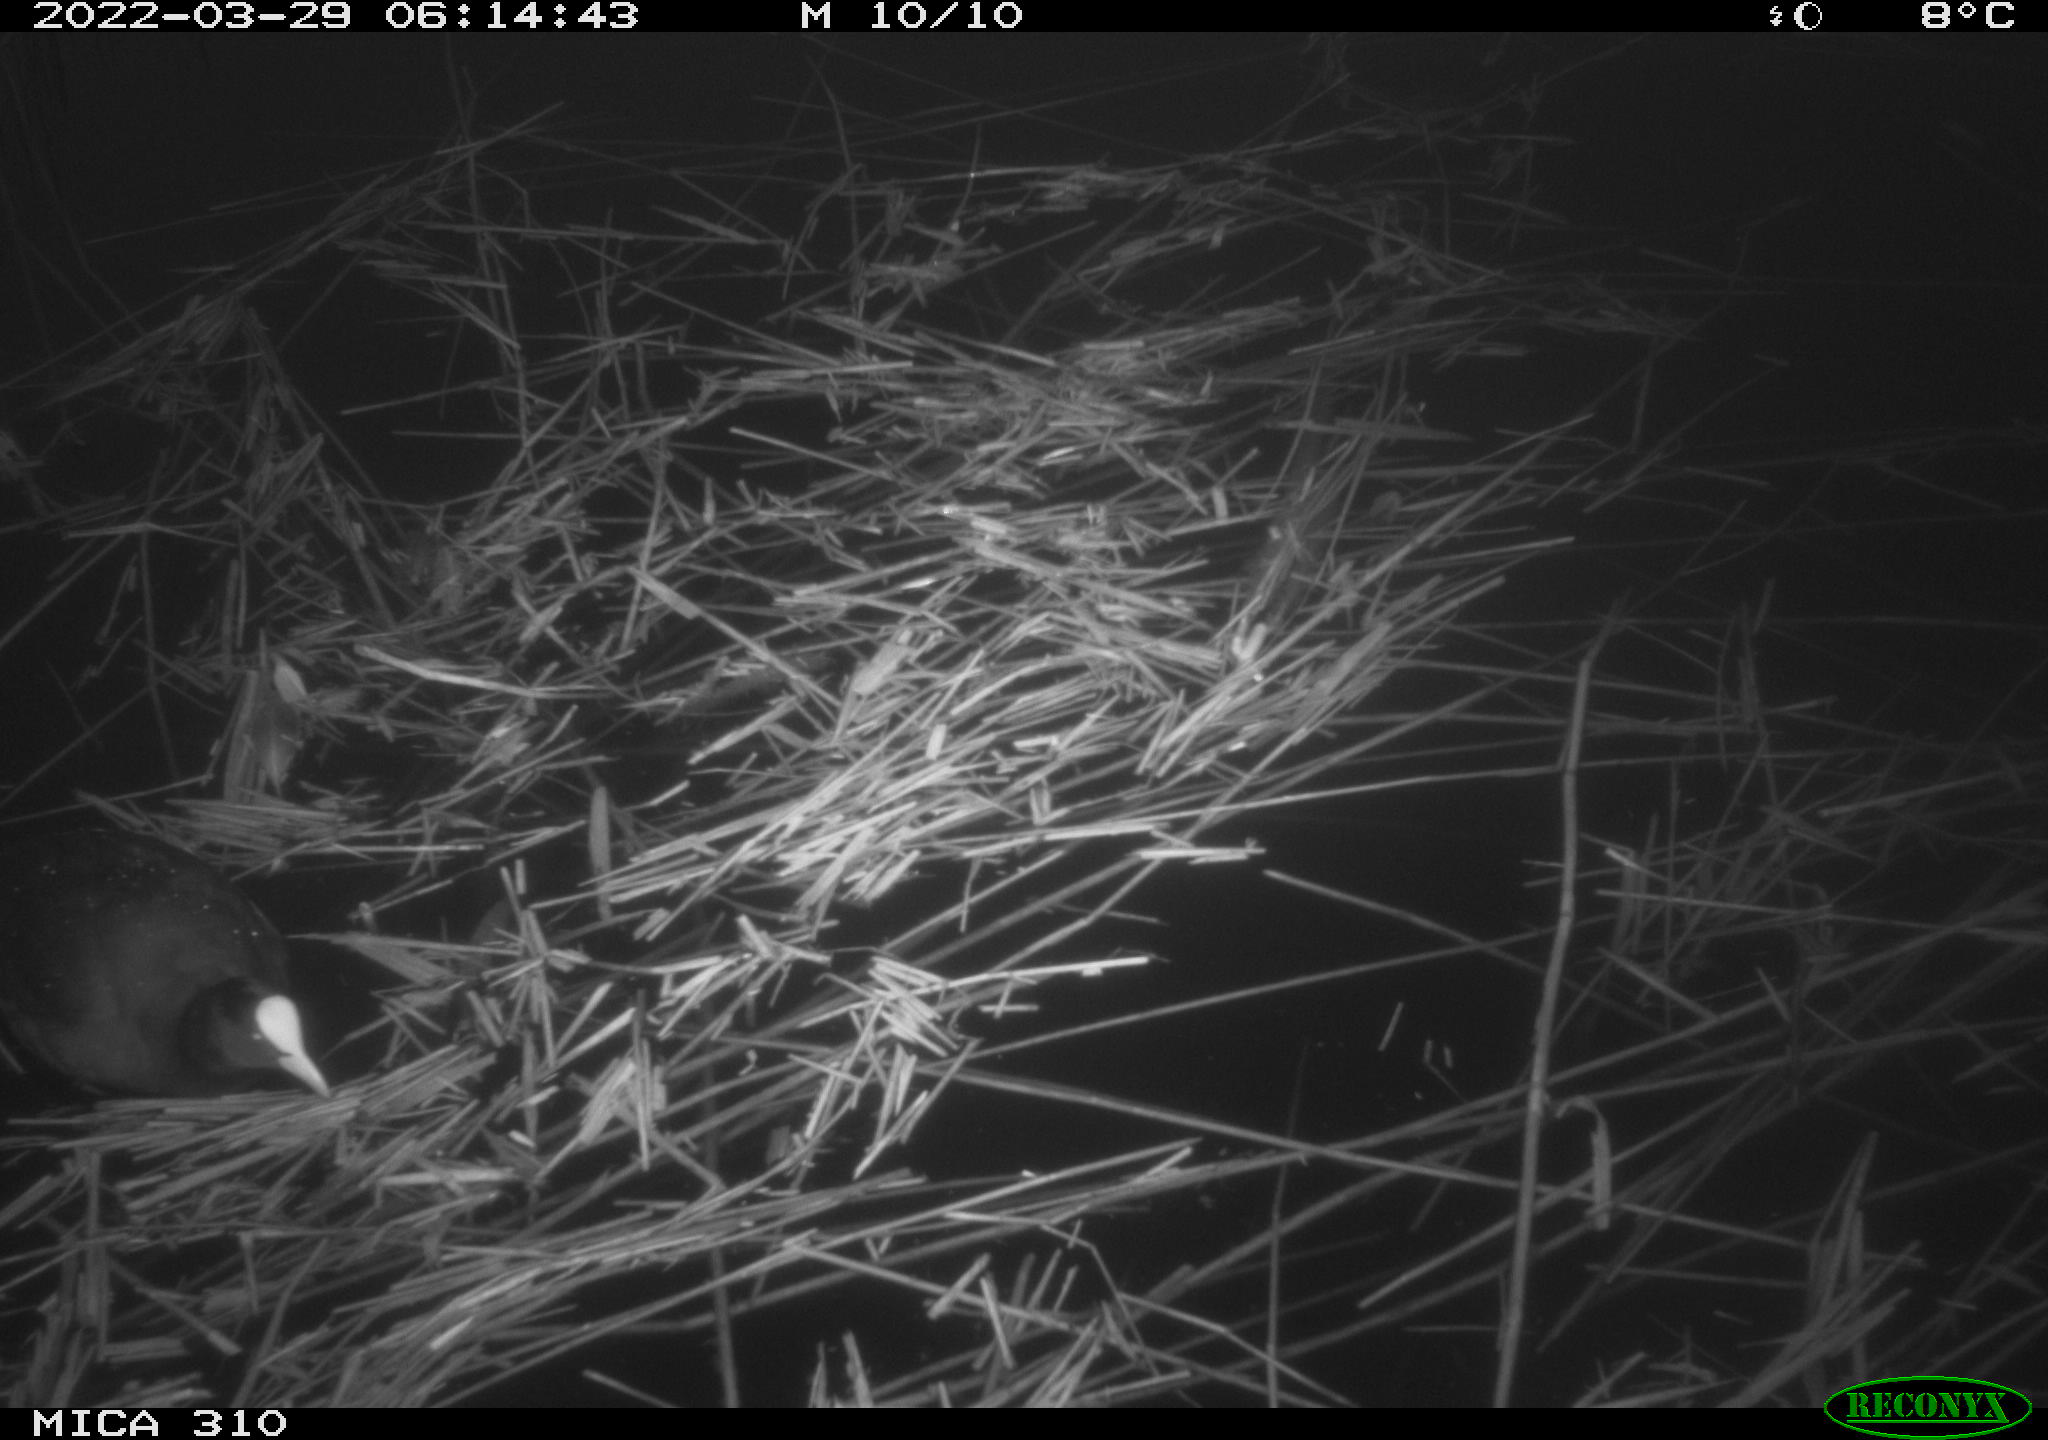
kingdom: Animalia
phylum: Chordata
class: Aves
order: Gruiformes
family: Rallidae
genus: Gallinula
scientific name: Gallinula chloropus
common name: Common moorhen
